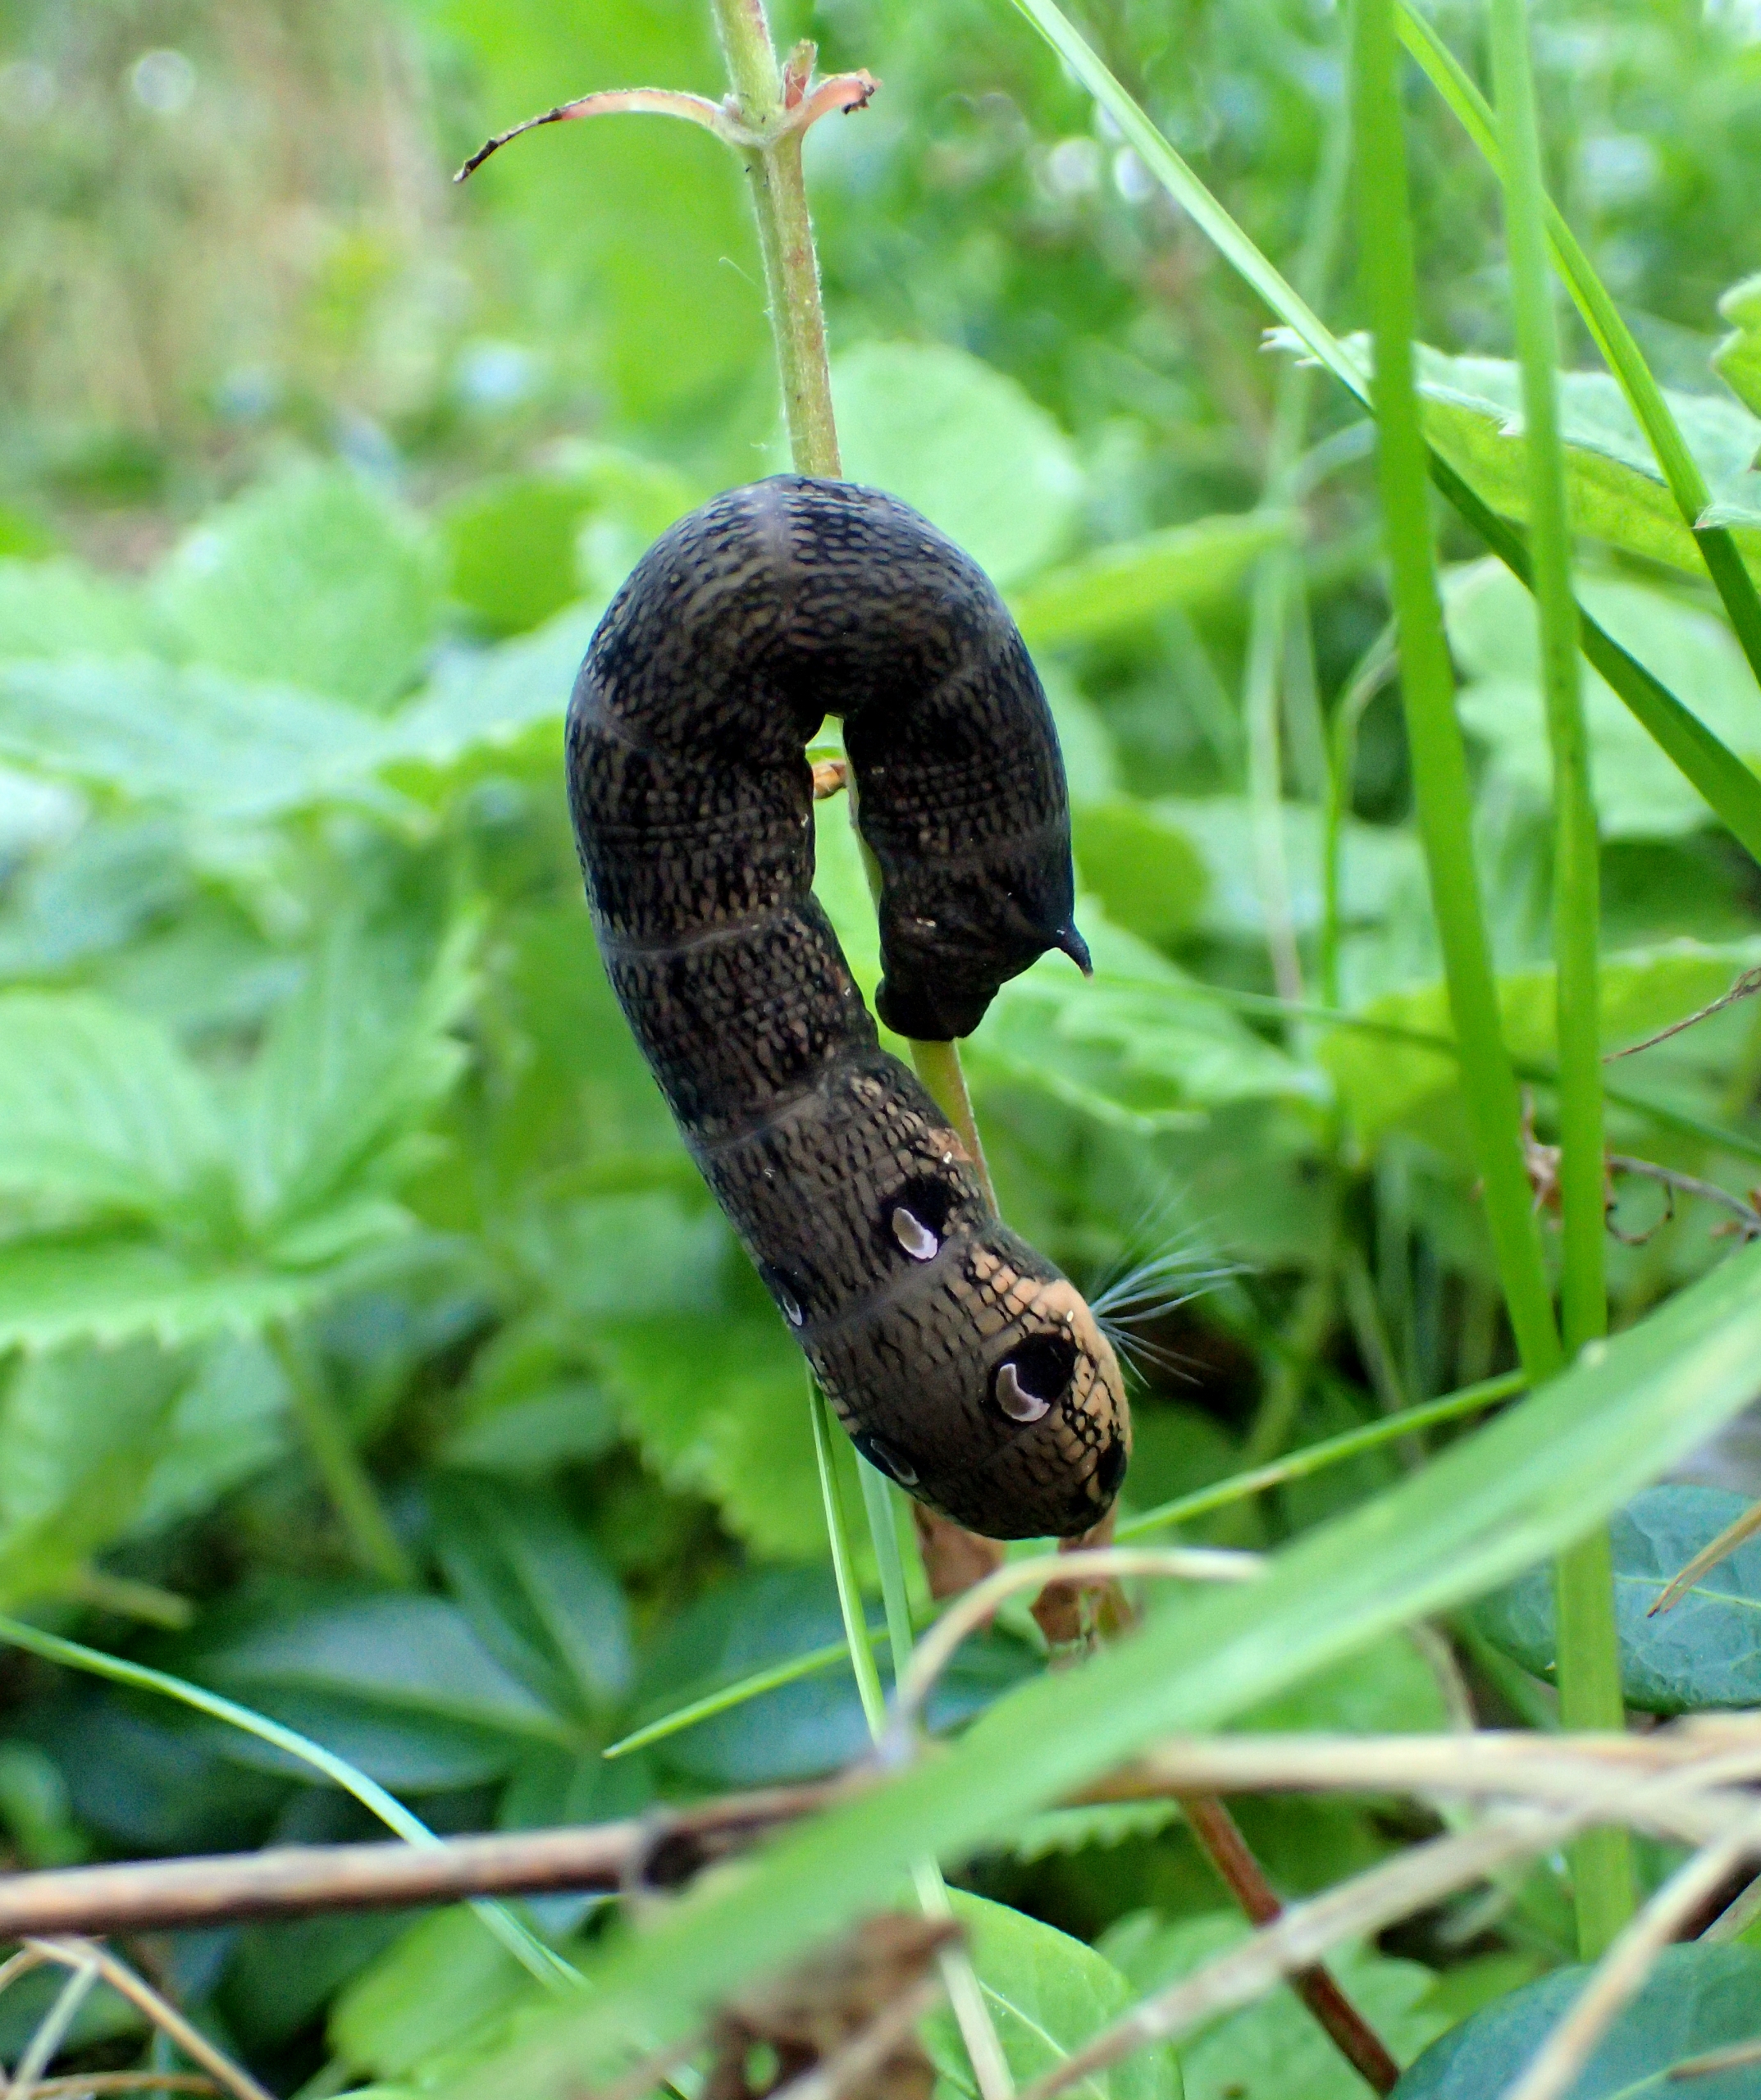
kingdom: Animalia
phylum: Arthropoda
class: Insecta
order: Lepidoptera
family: Sphingidae
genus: Deilephila
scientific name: Deilephila elpenor
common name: Dueurtsværmer
